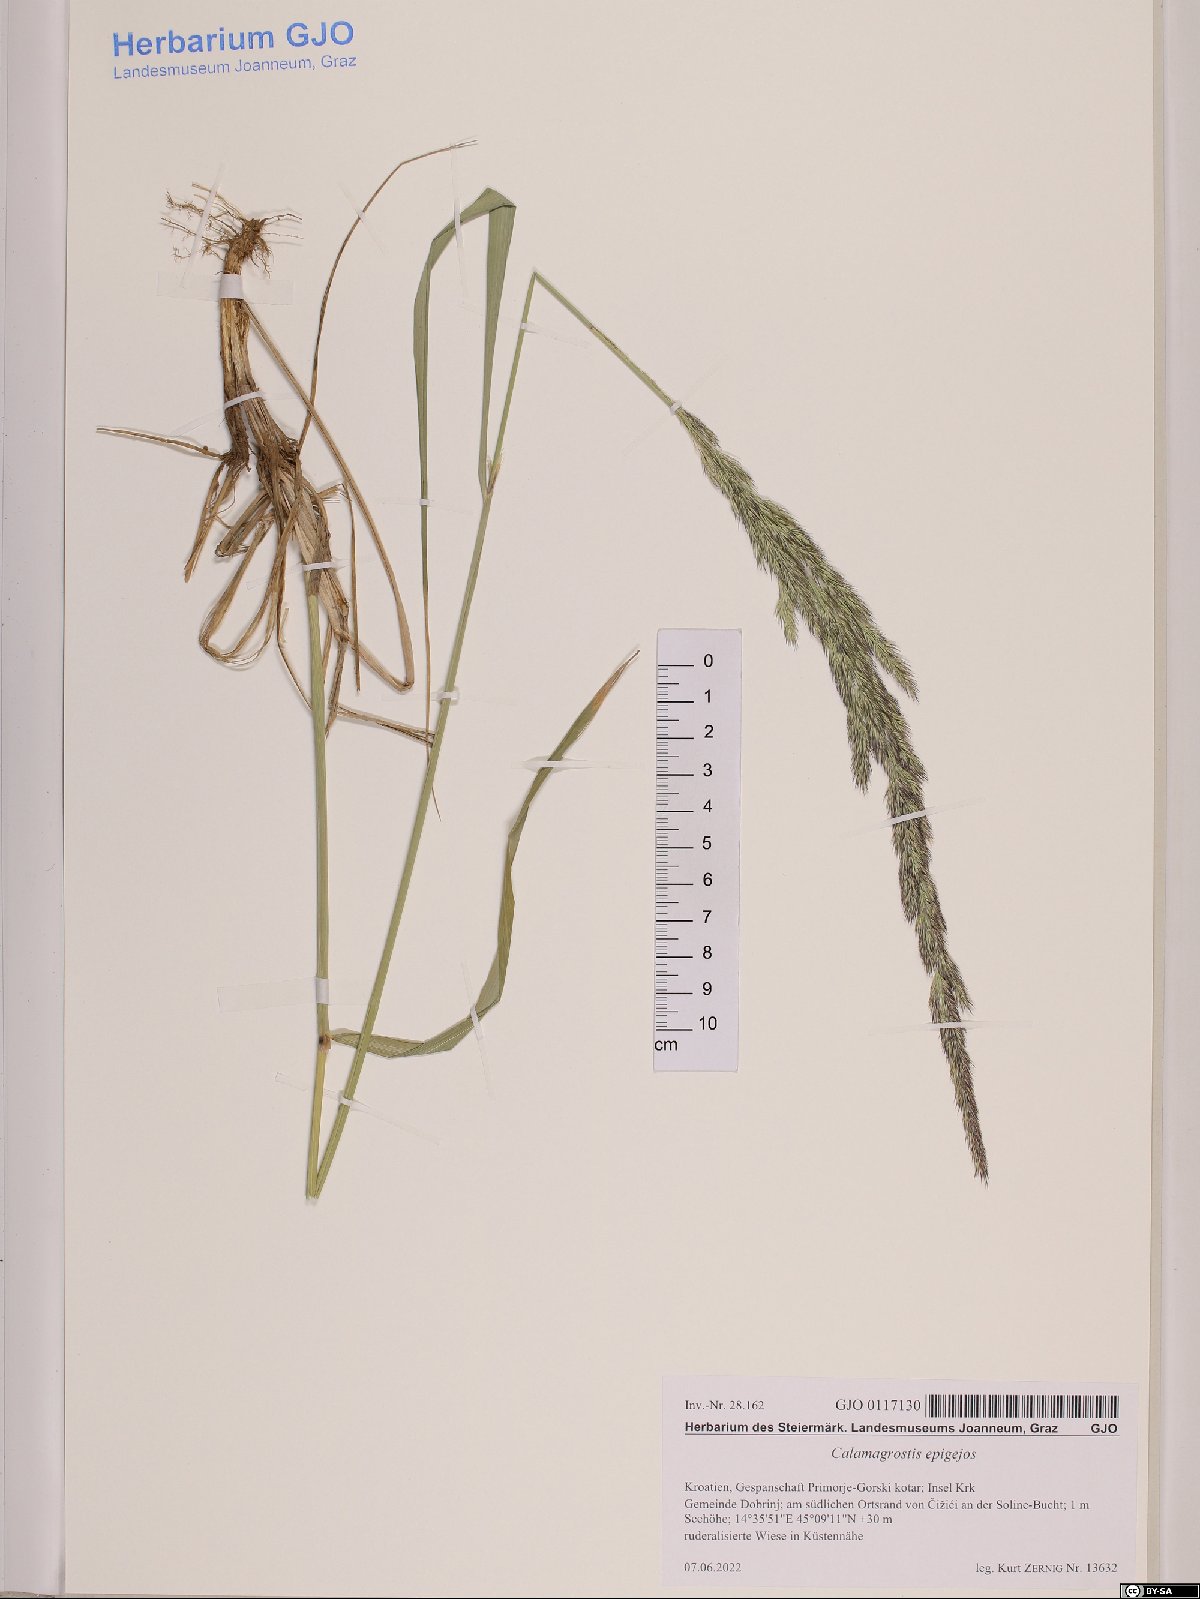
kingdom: Plantae
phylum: Tracheophyta
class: Liliopsida
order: Poales
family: Poaceae
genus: Calamagrostis
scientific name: Calamagrostis epigejos
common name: Wood small-reed
